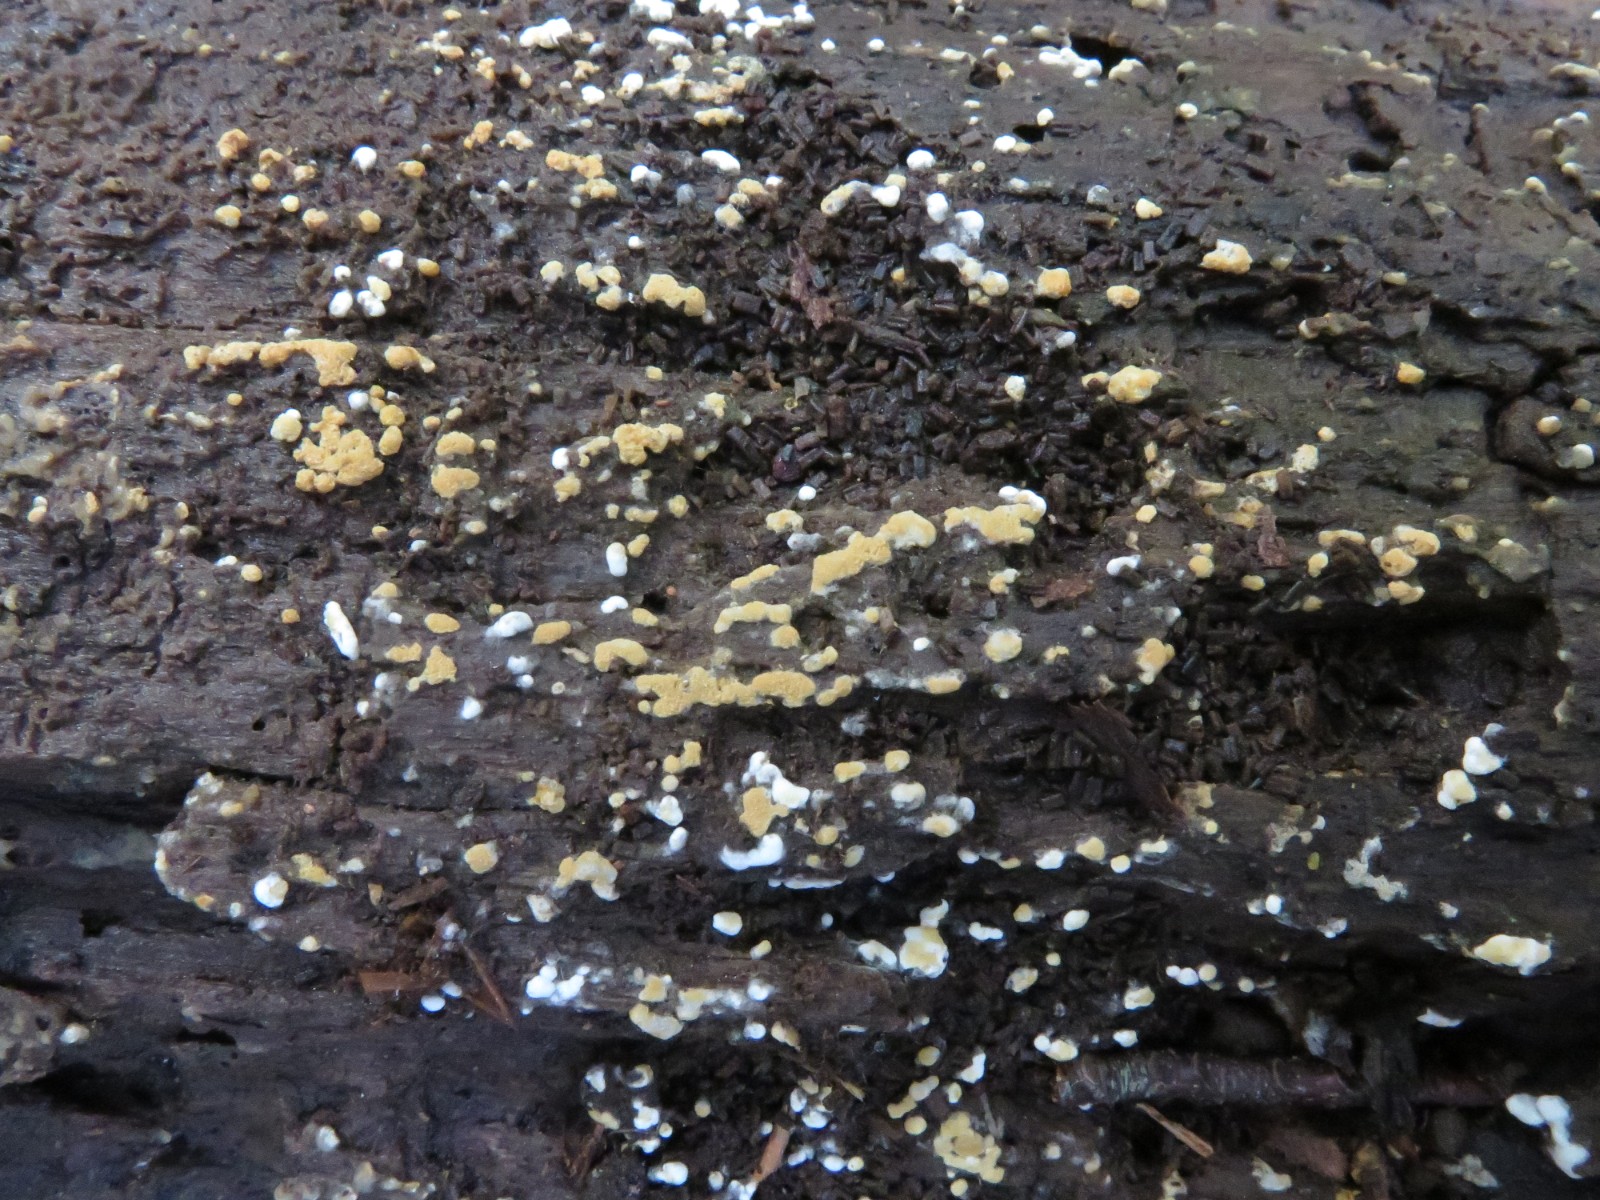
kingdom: Fungi
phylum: Basidiomycota
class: Agaricomycetes
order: Cantharellales
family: Botryobasidiaceae
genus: Botryobasidium
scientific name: Botryobasidium aureum
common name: gylden spindhinde
